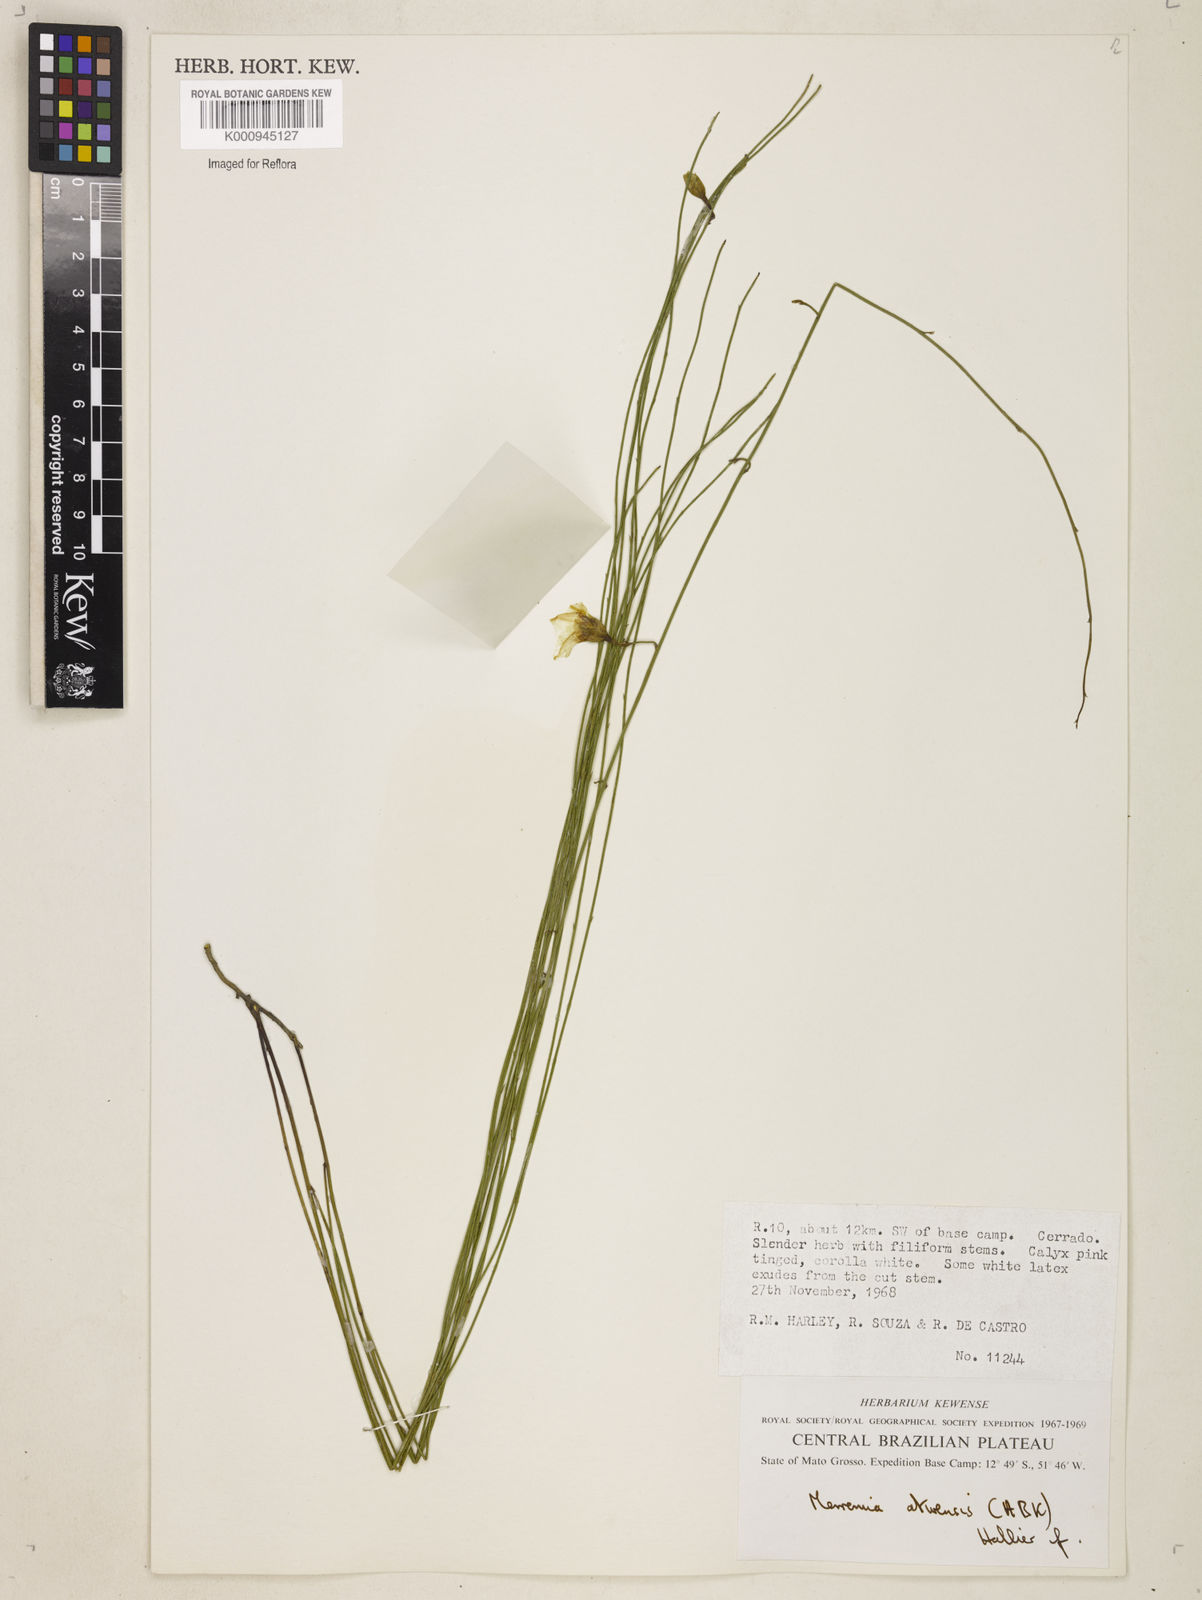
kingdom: Plantae
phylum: Tracheophyta
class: Magnoliopsida
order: Solanales
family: Convolvulaceae
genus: Distimake
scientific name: Distimake aturensis
